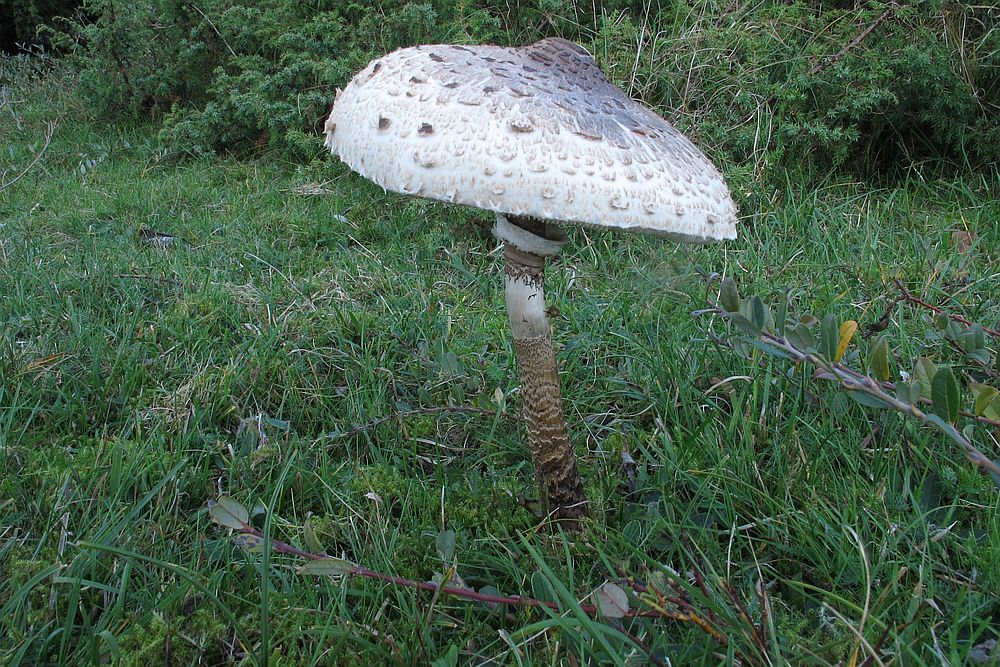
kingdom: Fungi
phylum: Basidiomycota
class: Agaricomycetes
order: Agaricales
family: Agaricaceae
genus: Macrolepiota
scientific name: Macrolepiota procera
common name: stor kæmpeparasolhat
